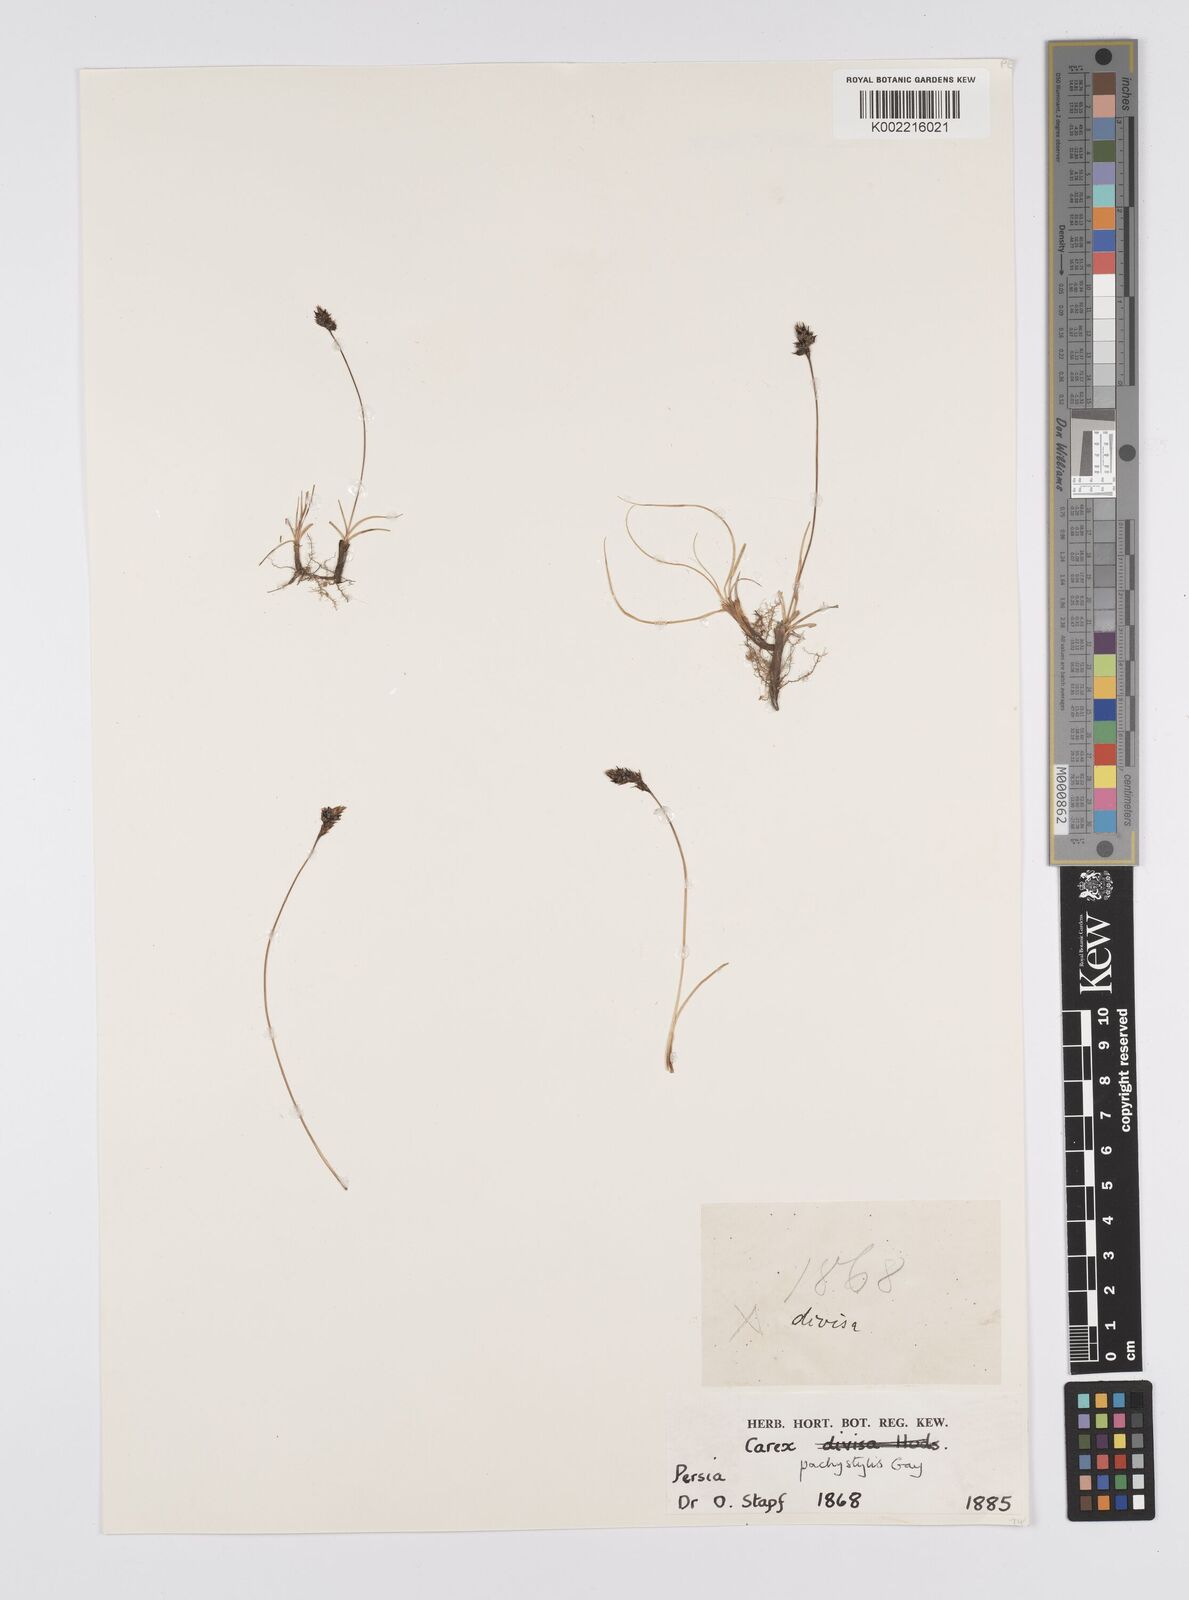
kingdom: Plantae
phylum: Tracheophyta
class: Liliopsida
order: Poales
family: Cyperaceae
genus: Carex
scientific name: Carex pachystylis
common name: Thick-stem sedge
